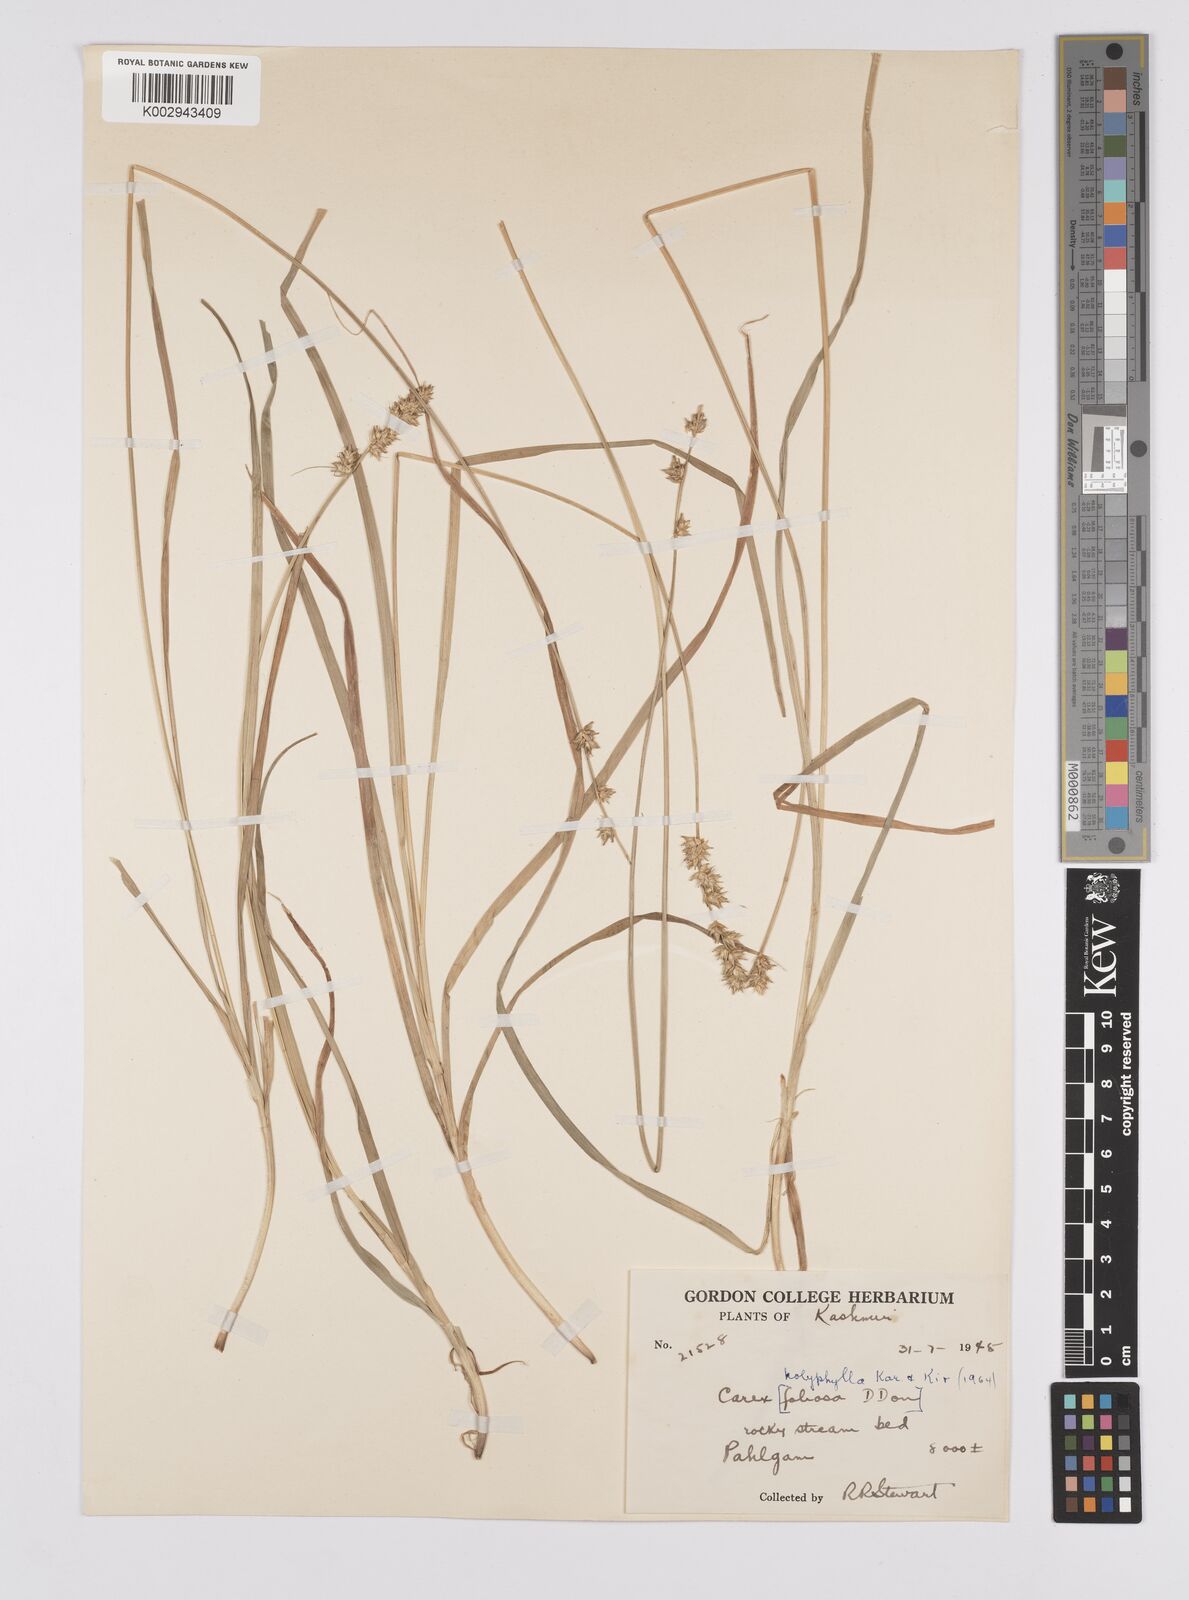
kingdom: Plantae
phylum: Tracheophyta
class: Liliopsida
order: Poales
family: Cyperaceae
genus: Carex
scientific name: Carex polyphylla
